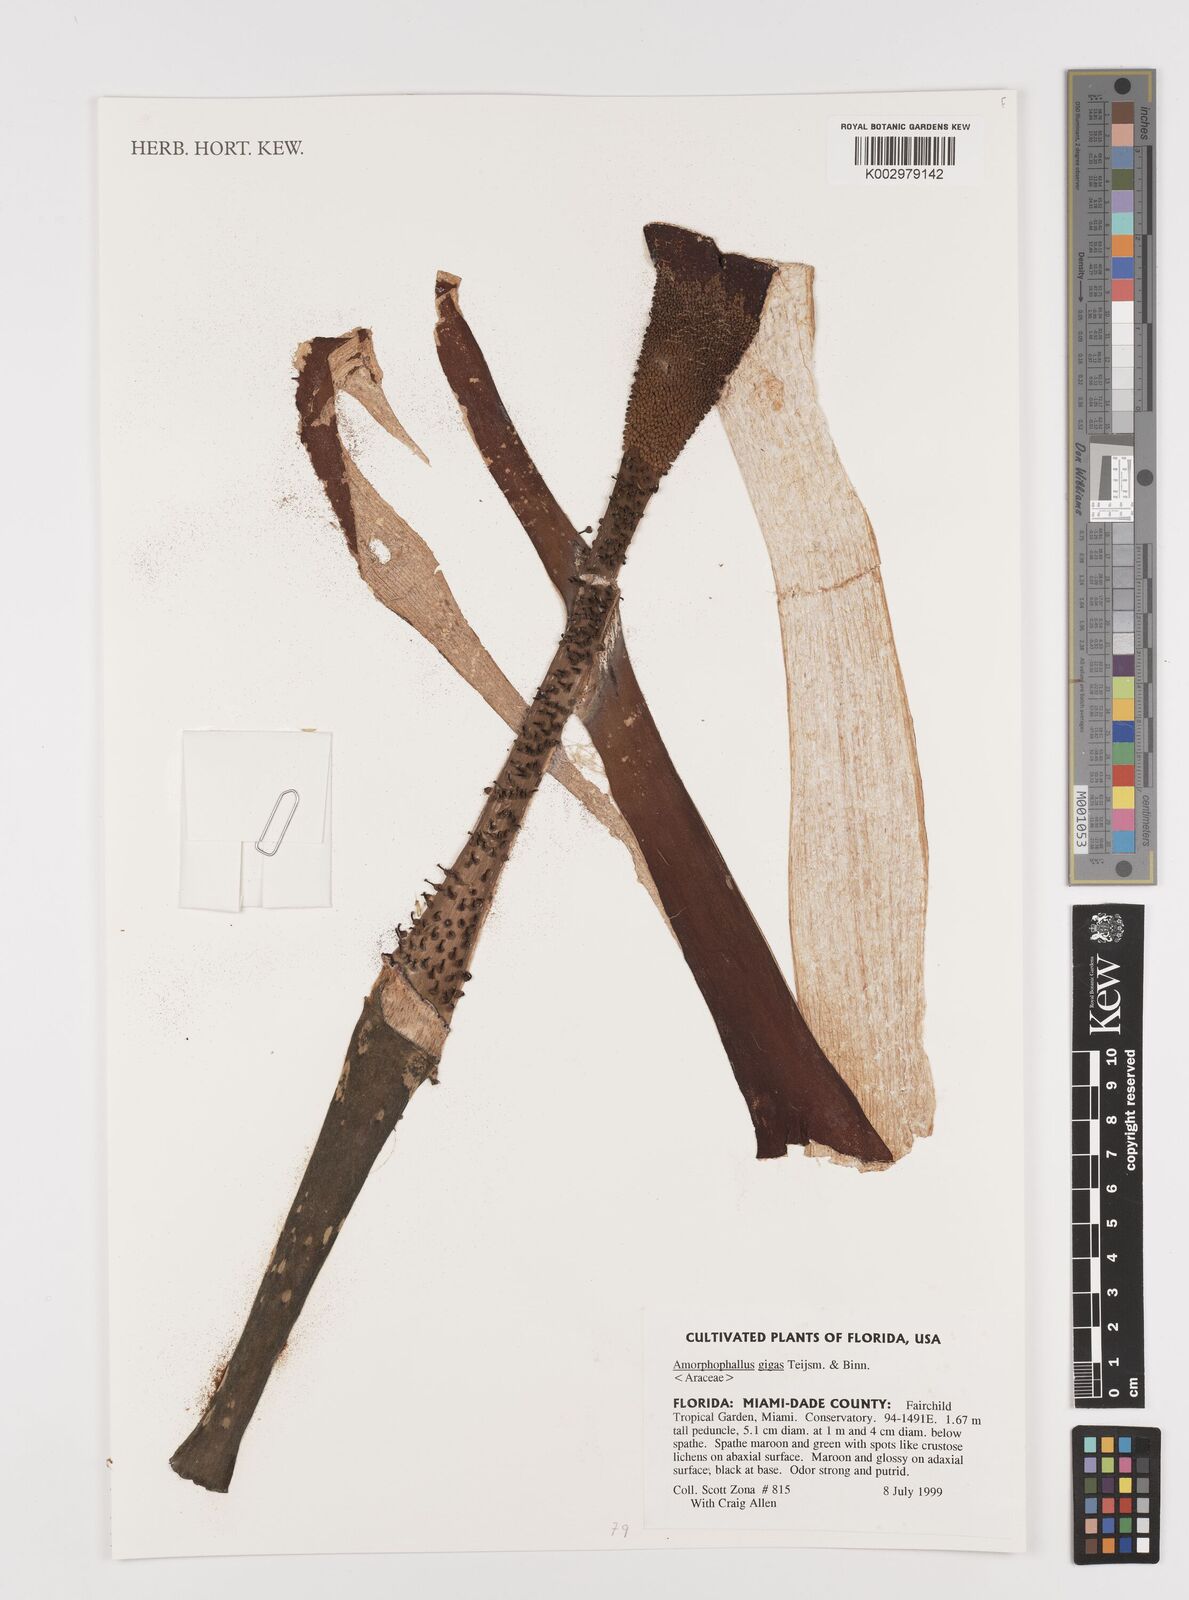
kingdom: Plantae
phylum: Tracheophyta
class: Liliopsida
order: Alismatales
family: Araceae
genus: Amorphophallus
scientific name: Amorphophallus gigas
